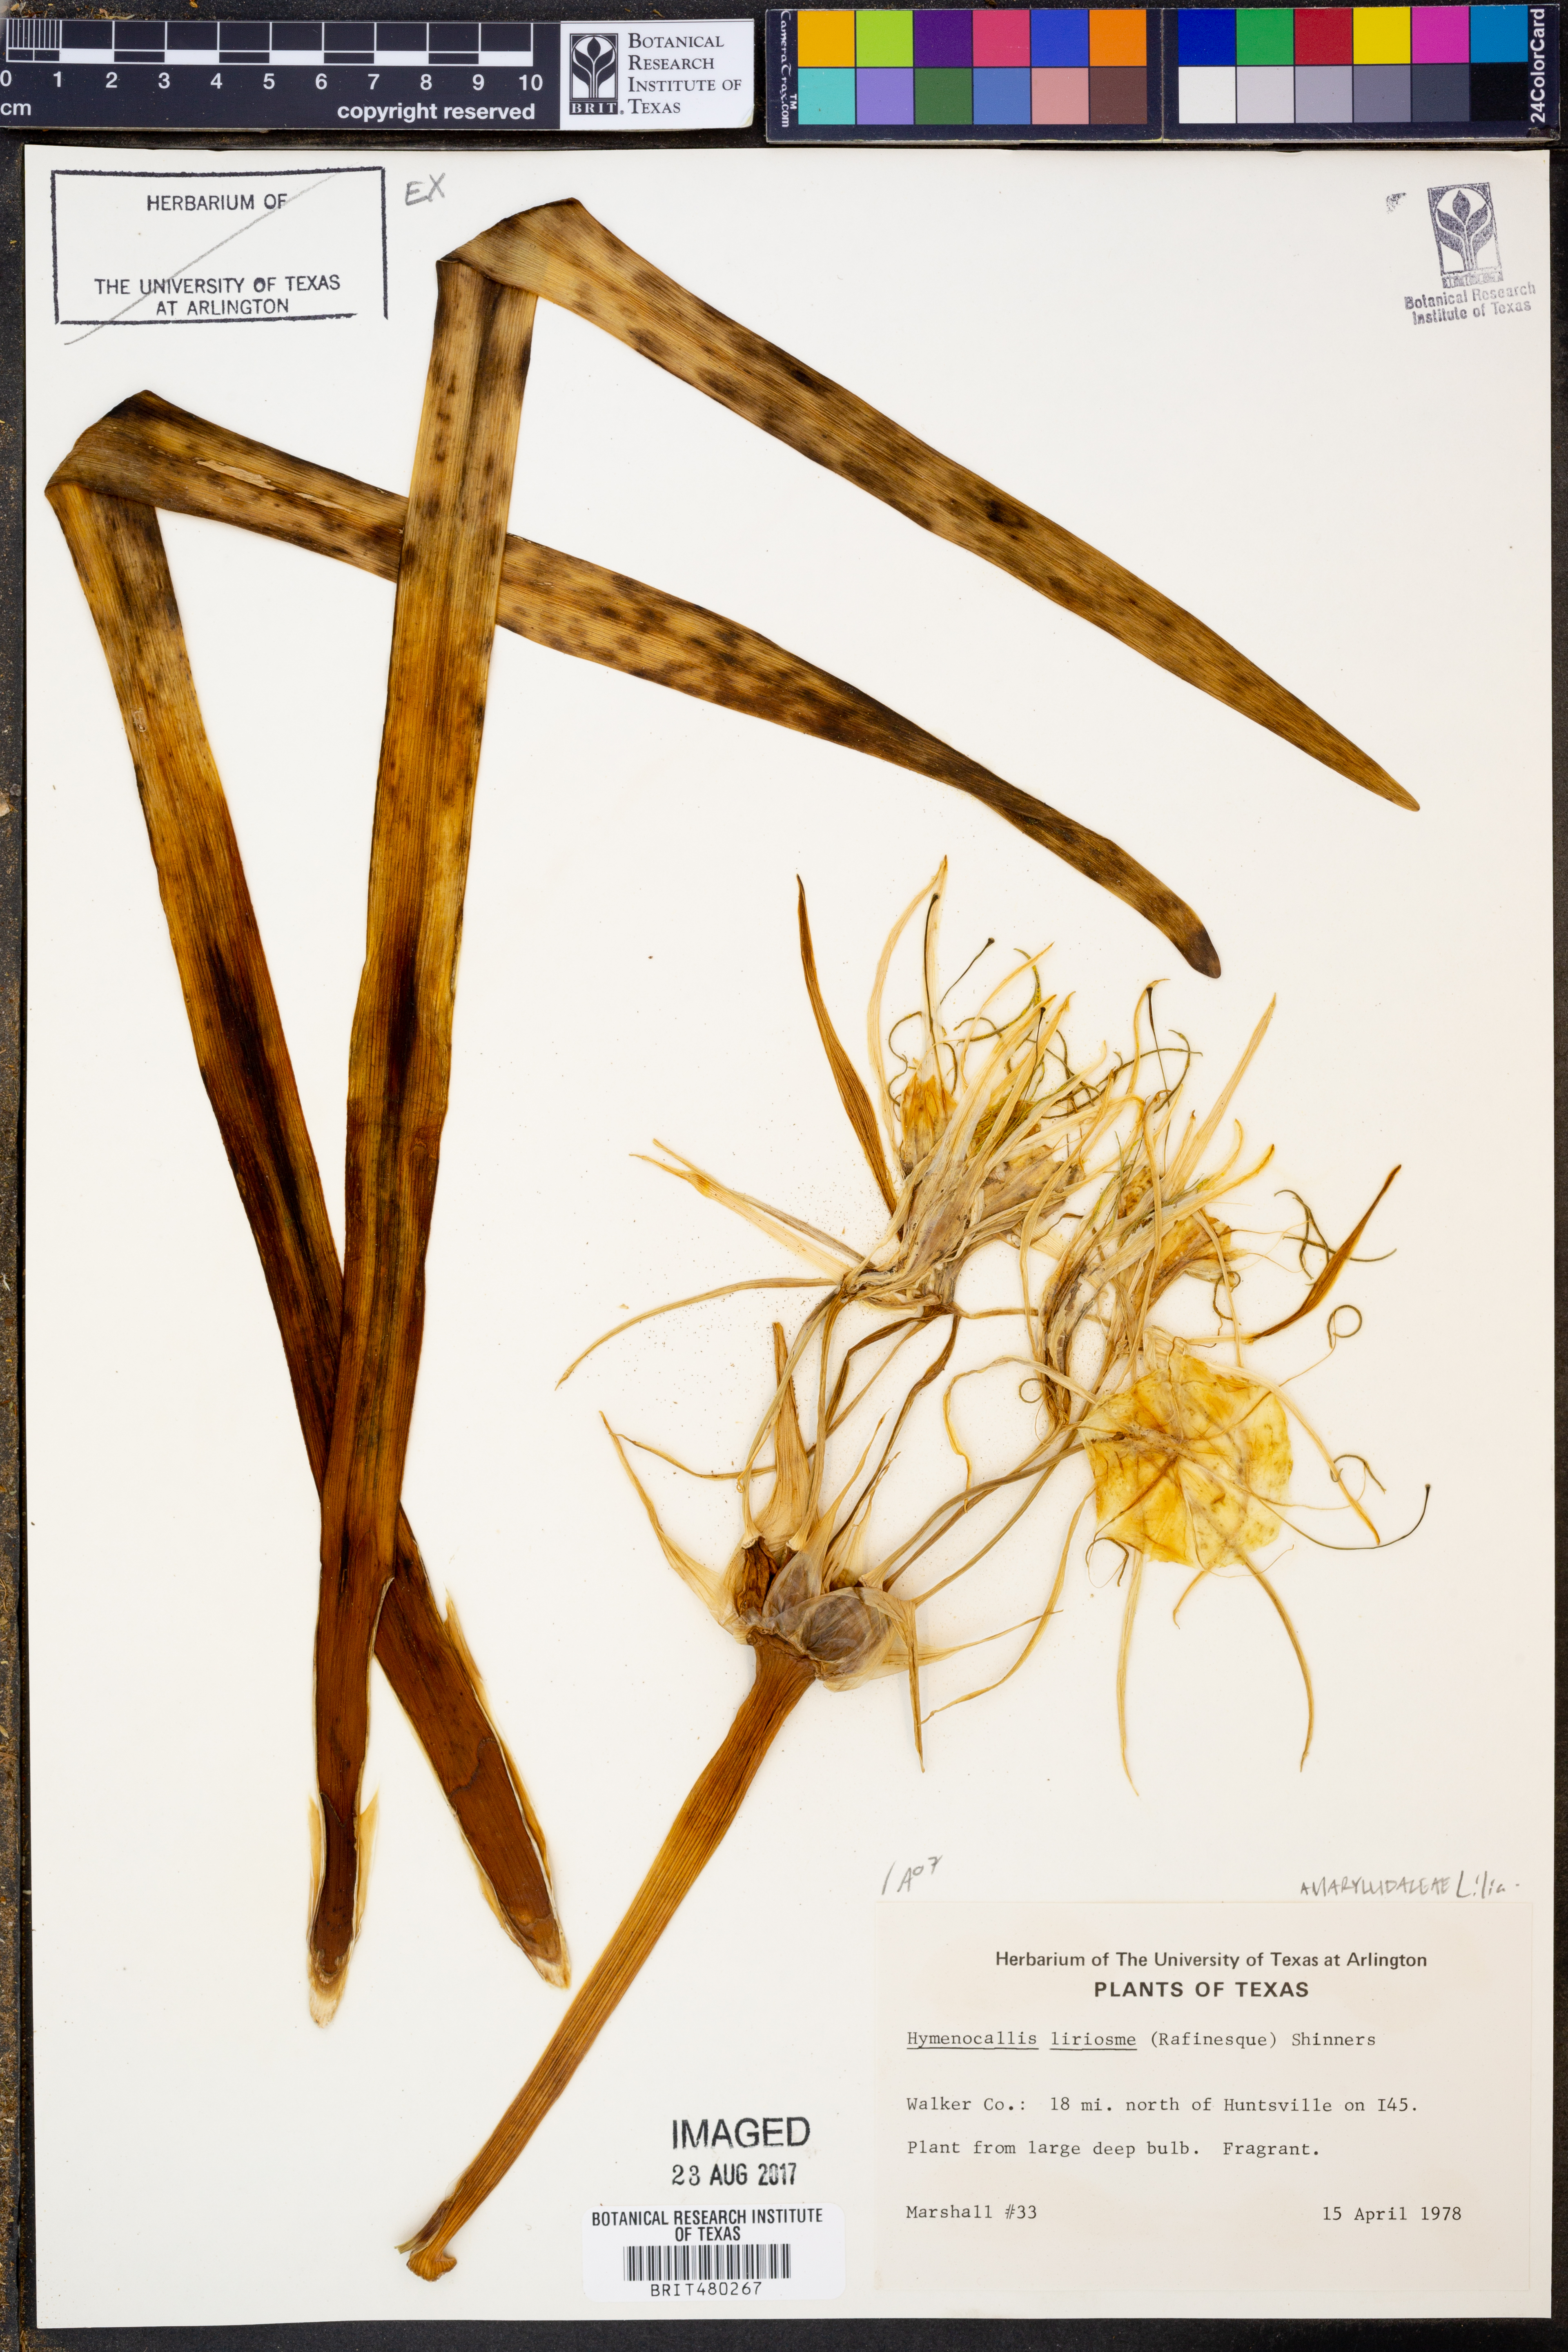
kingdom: Plantae
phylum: Tracheophyta
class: Liliopsida
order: Asparagales
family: Amaryllidaceae
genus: Hymenocallis
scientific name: Hymenocallis liriosme
